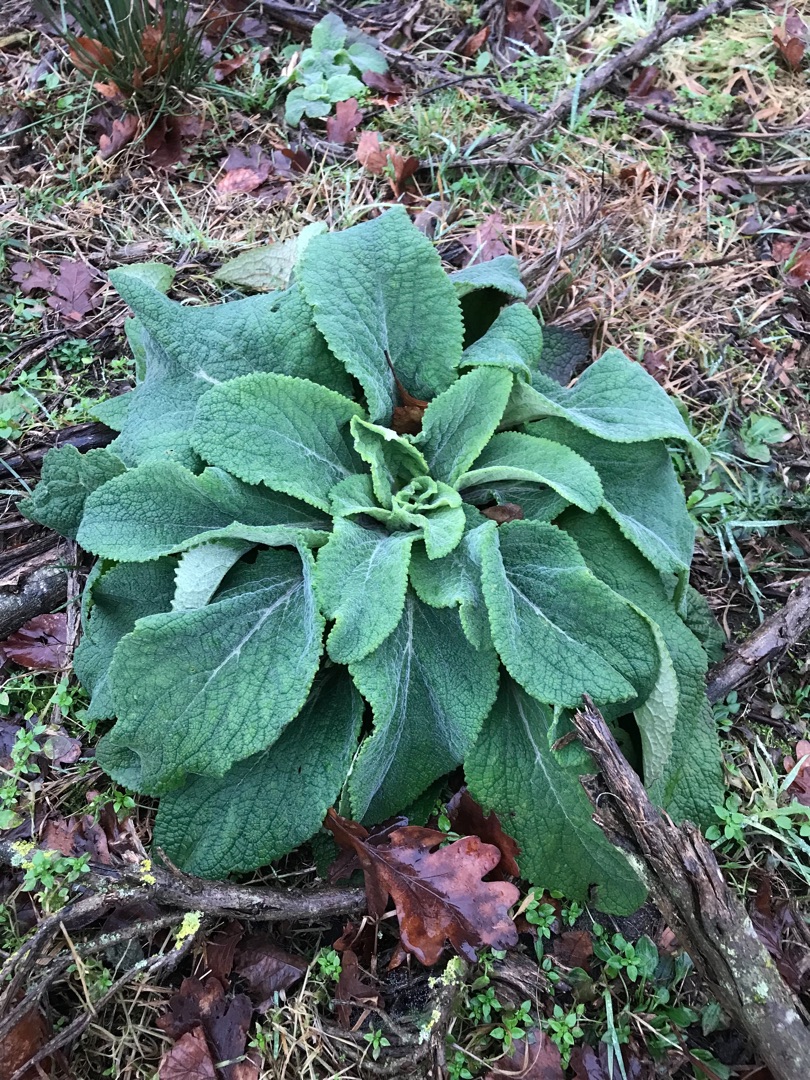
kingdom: Plantae
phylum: Tracheophyta
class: Magnoliopsida
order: Lamiales
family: Plantaginaceae
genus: Digitalis
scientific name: Digitalis purpurea
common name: Almindelig fingerbøl
